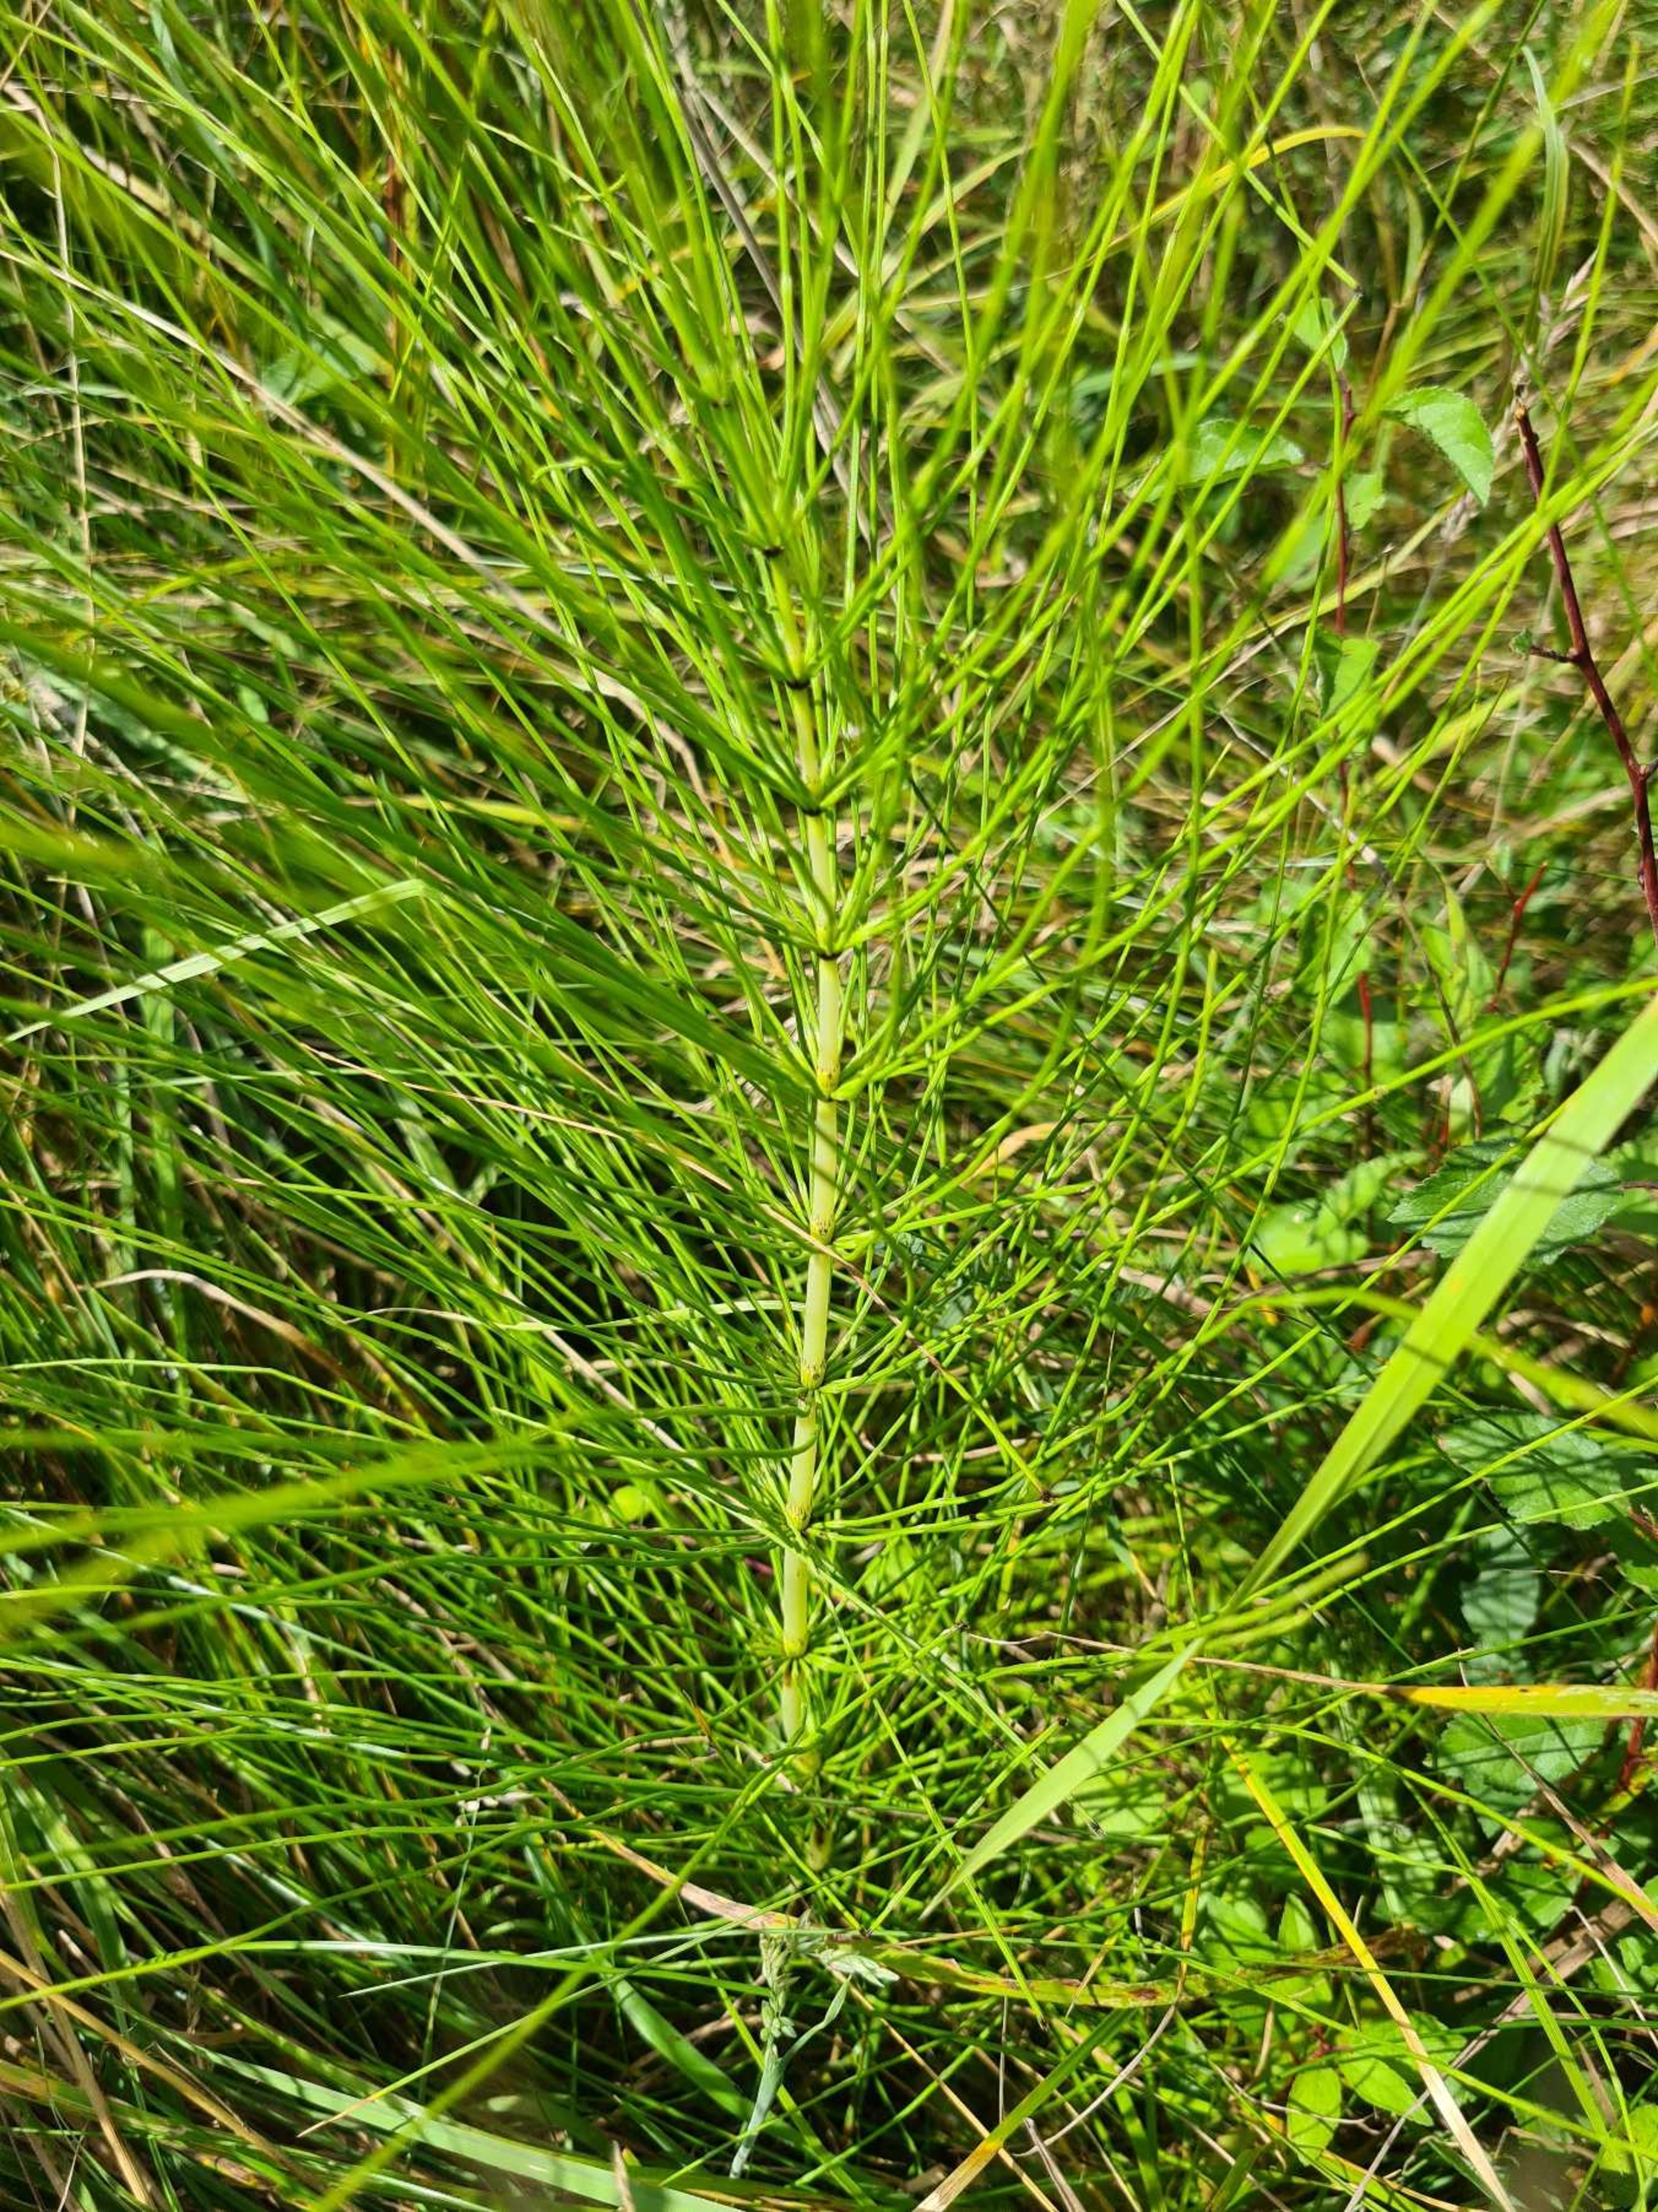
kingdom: Plantae
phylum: Tracheophyta
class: Polypodiopsida
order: Equisetales
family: Equisetaceae
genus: Equisetum
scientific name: Equisetum telmateia
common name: Elfenbens-padderok
